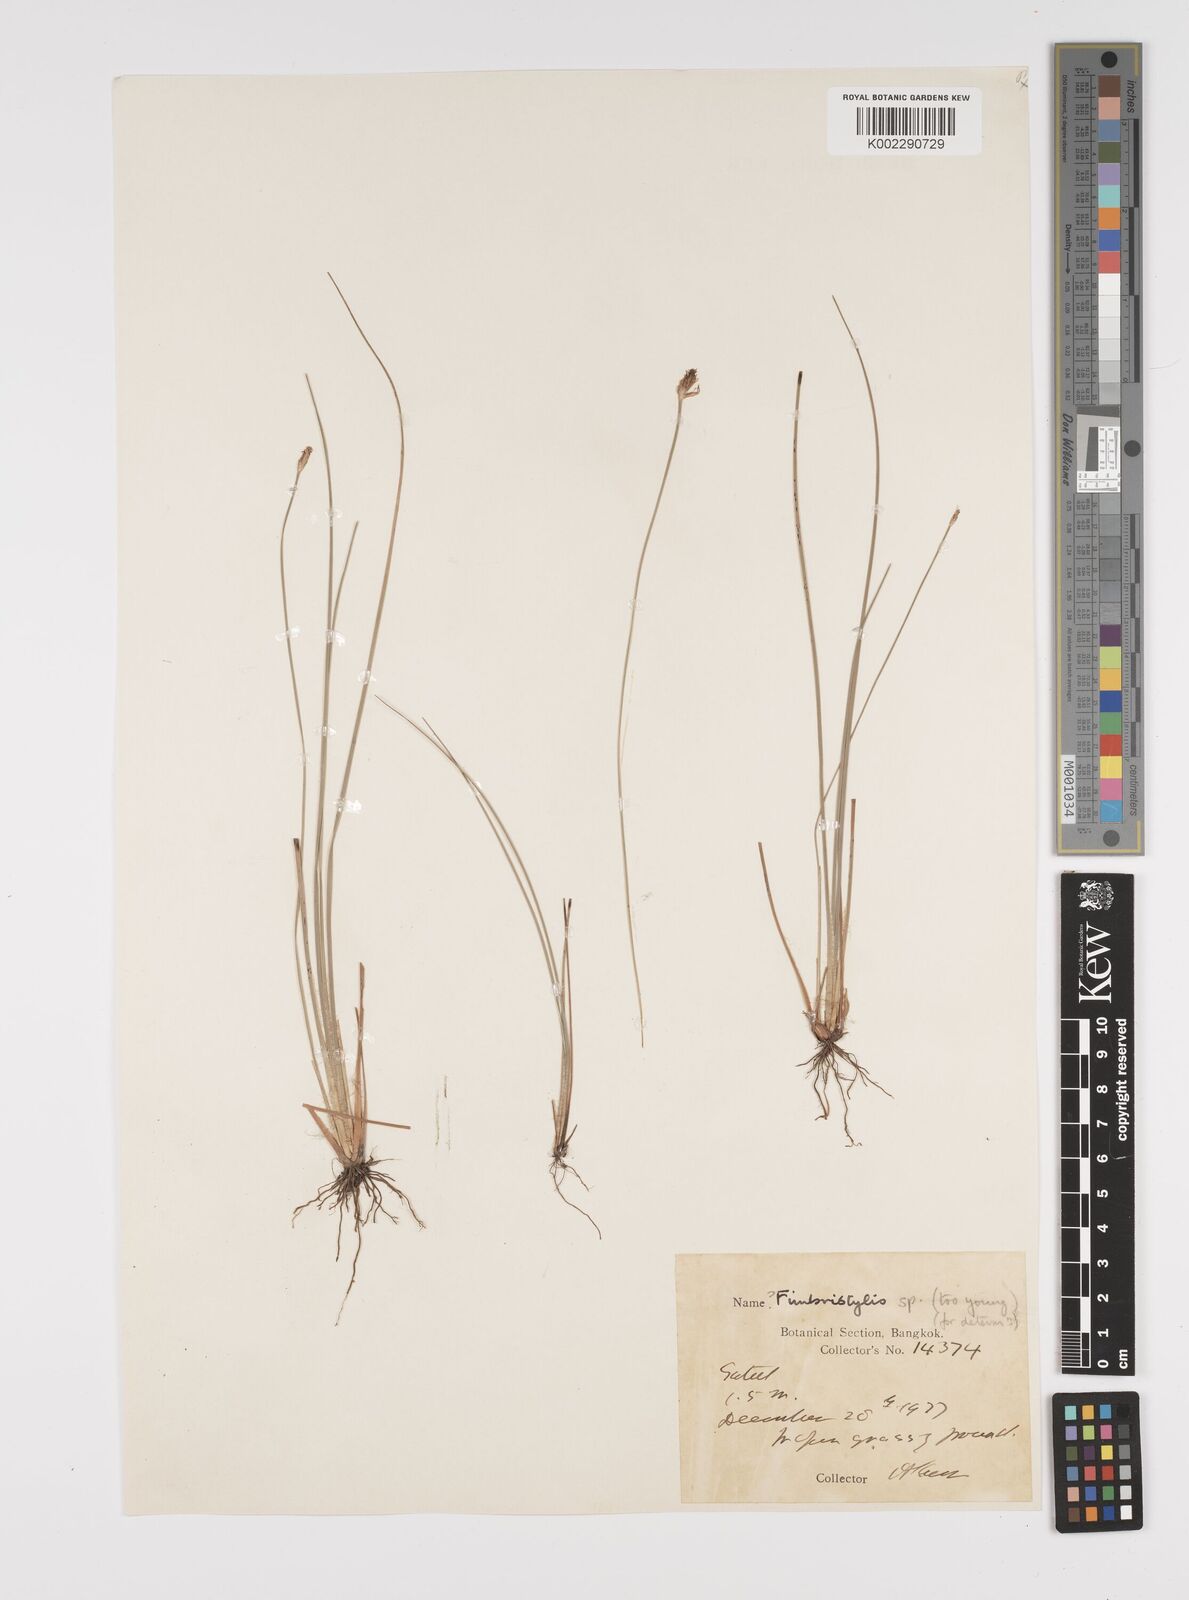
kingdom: Plantae
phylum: Tracheophyta
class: Liliopsida
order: Poales
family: Cyperaceae
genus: Fimbristylis
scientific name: Fimbristylis
